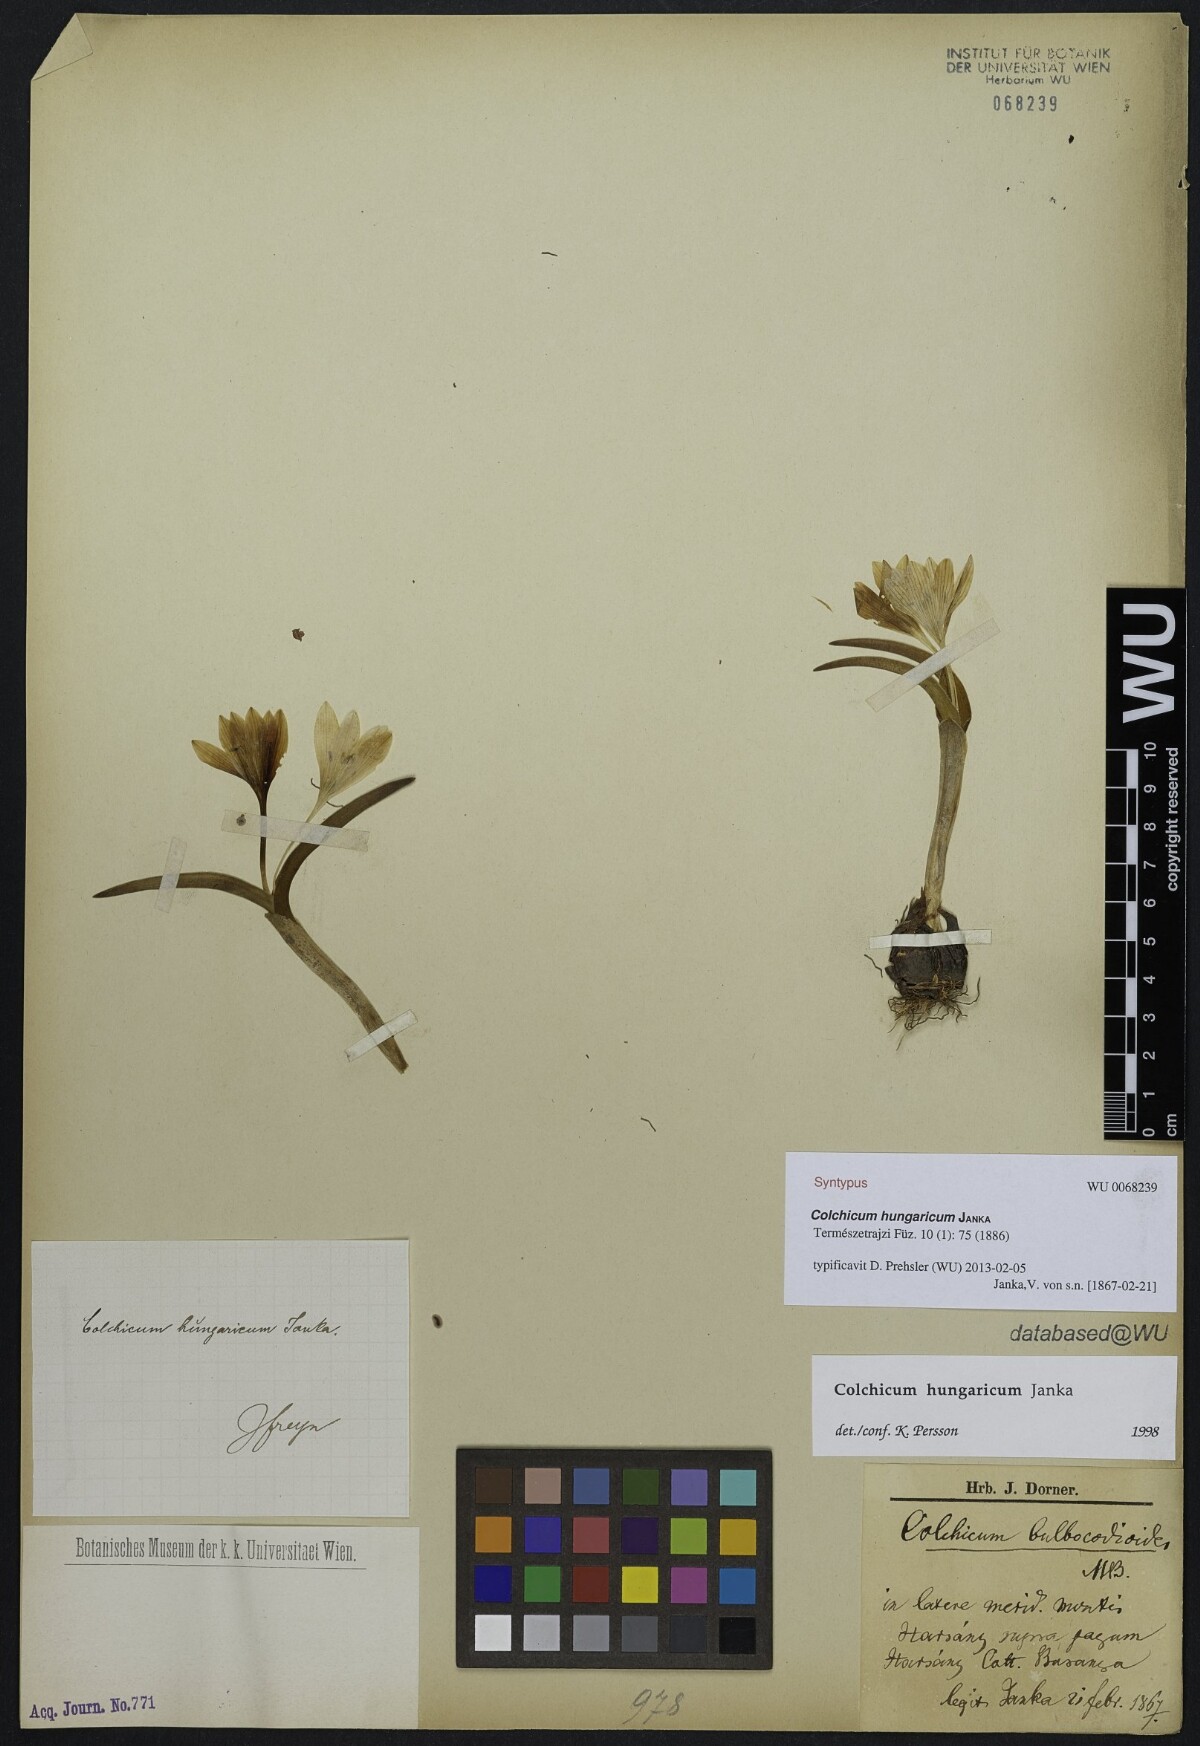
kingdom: Plantae
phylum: Tracheophyta
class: Liliopsida
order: Liliales
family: Colchicaceae
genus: Colchicum
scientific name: Colchicum hungaricum
